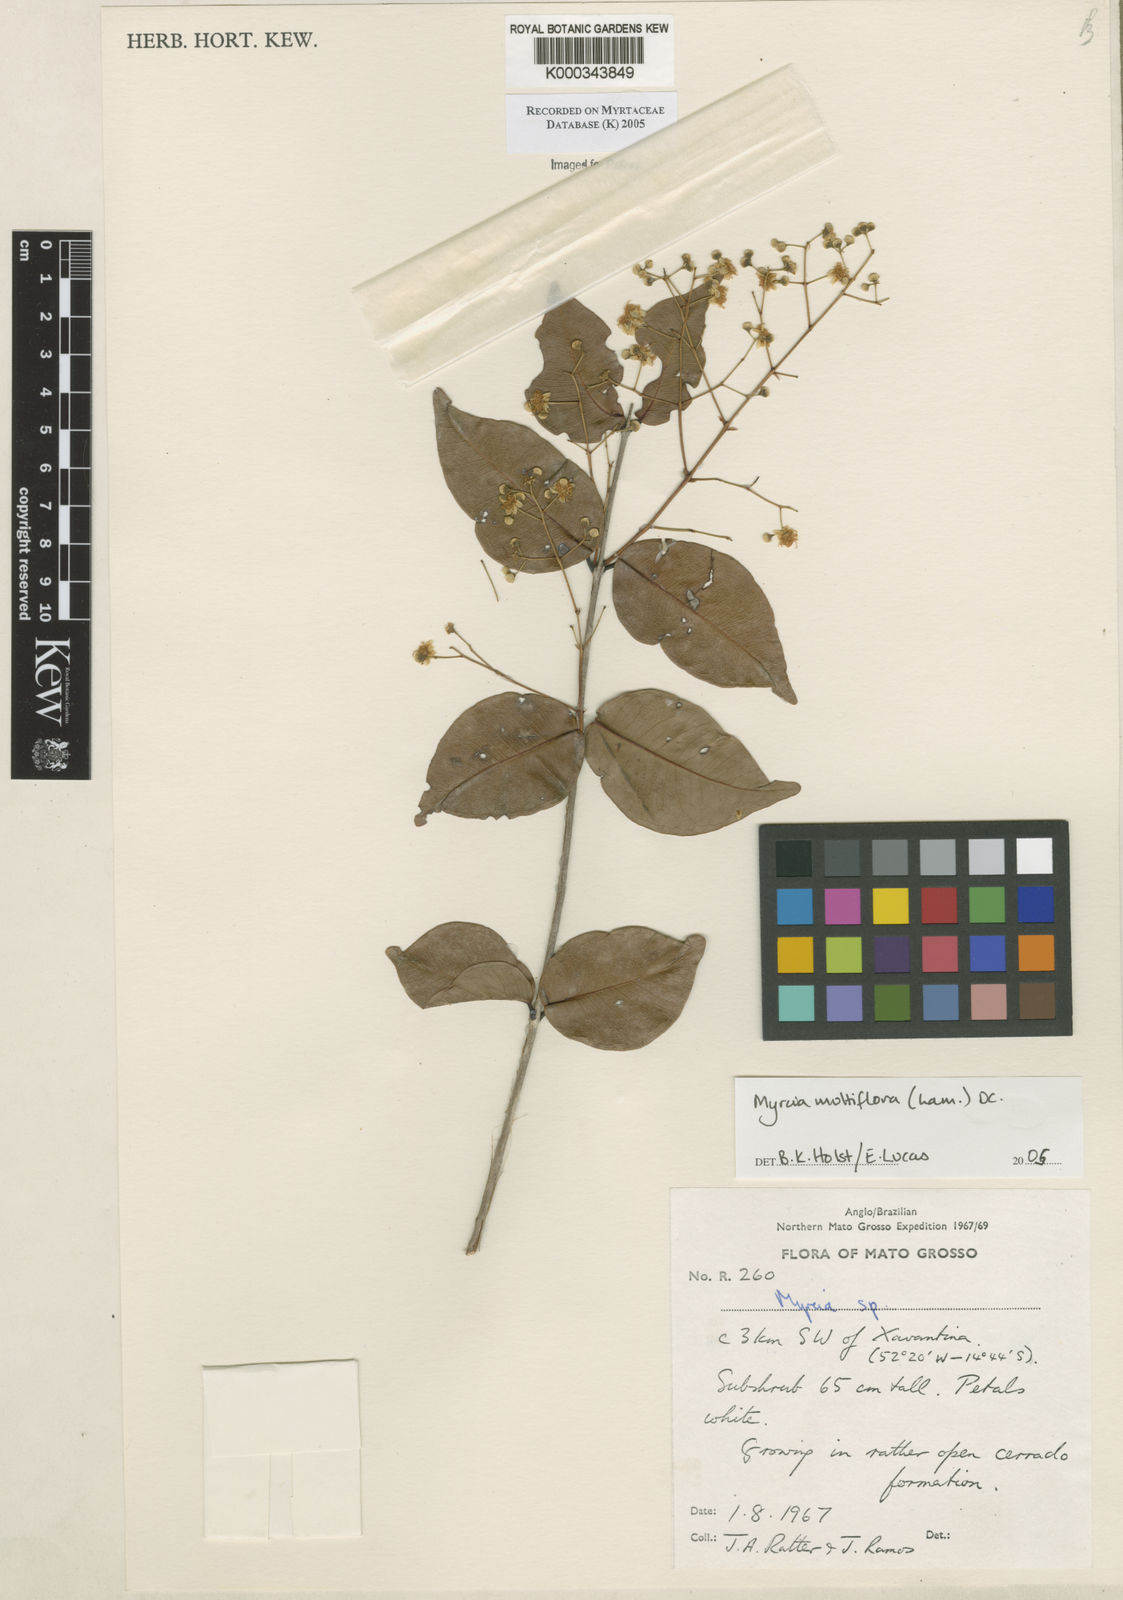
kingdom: Plantae
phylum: Tracheophyta
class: Magnoliopsida
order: Myrtales
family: Myrtaceae
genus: Myrcia
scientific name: Myrcia multiflora
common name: Pedra hume
